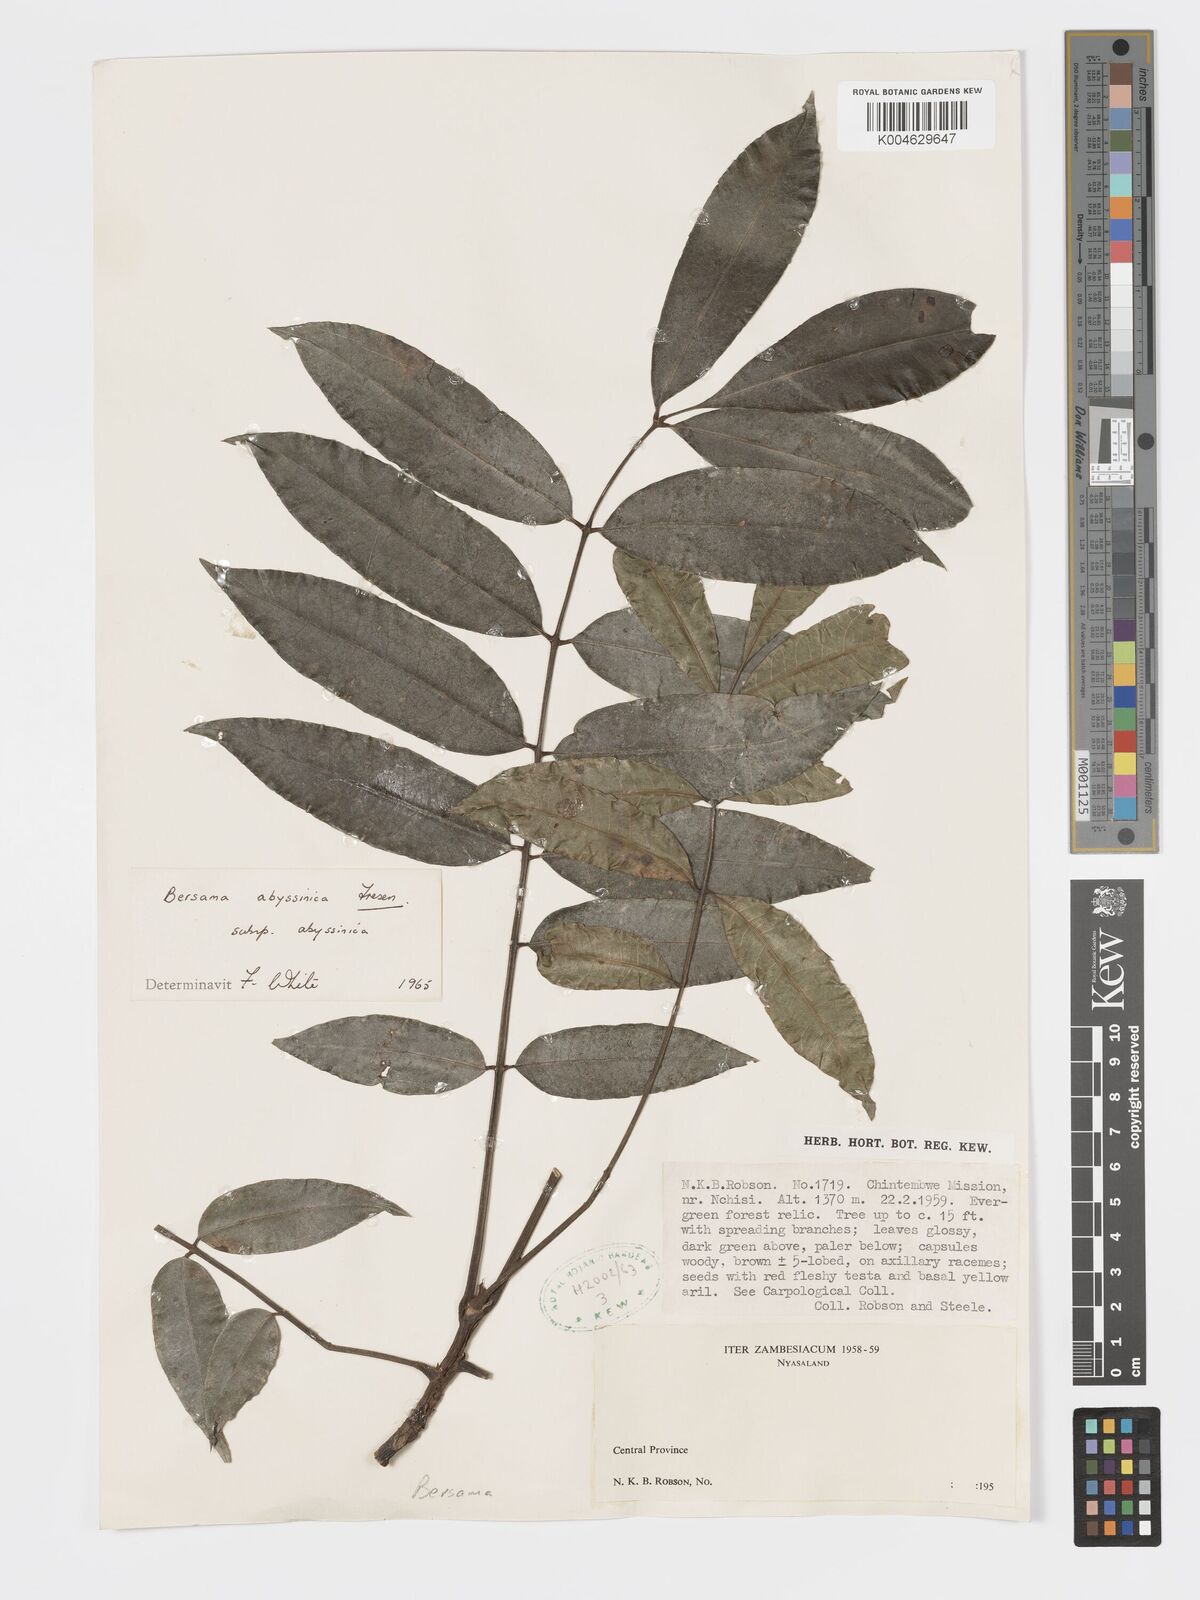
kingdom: Plantae
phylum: Tracheophyta
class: Magnoliopsida
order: Geraniales
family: Francoaceae
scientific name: Francoaceae
